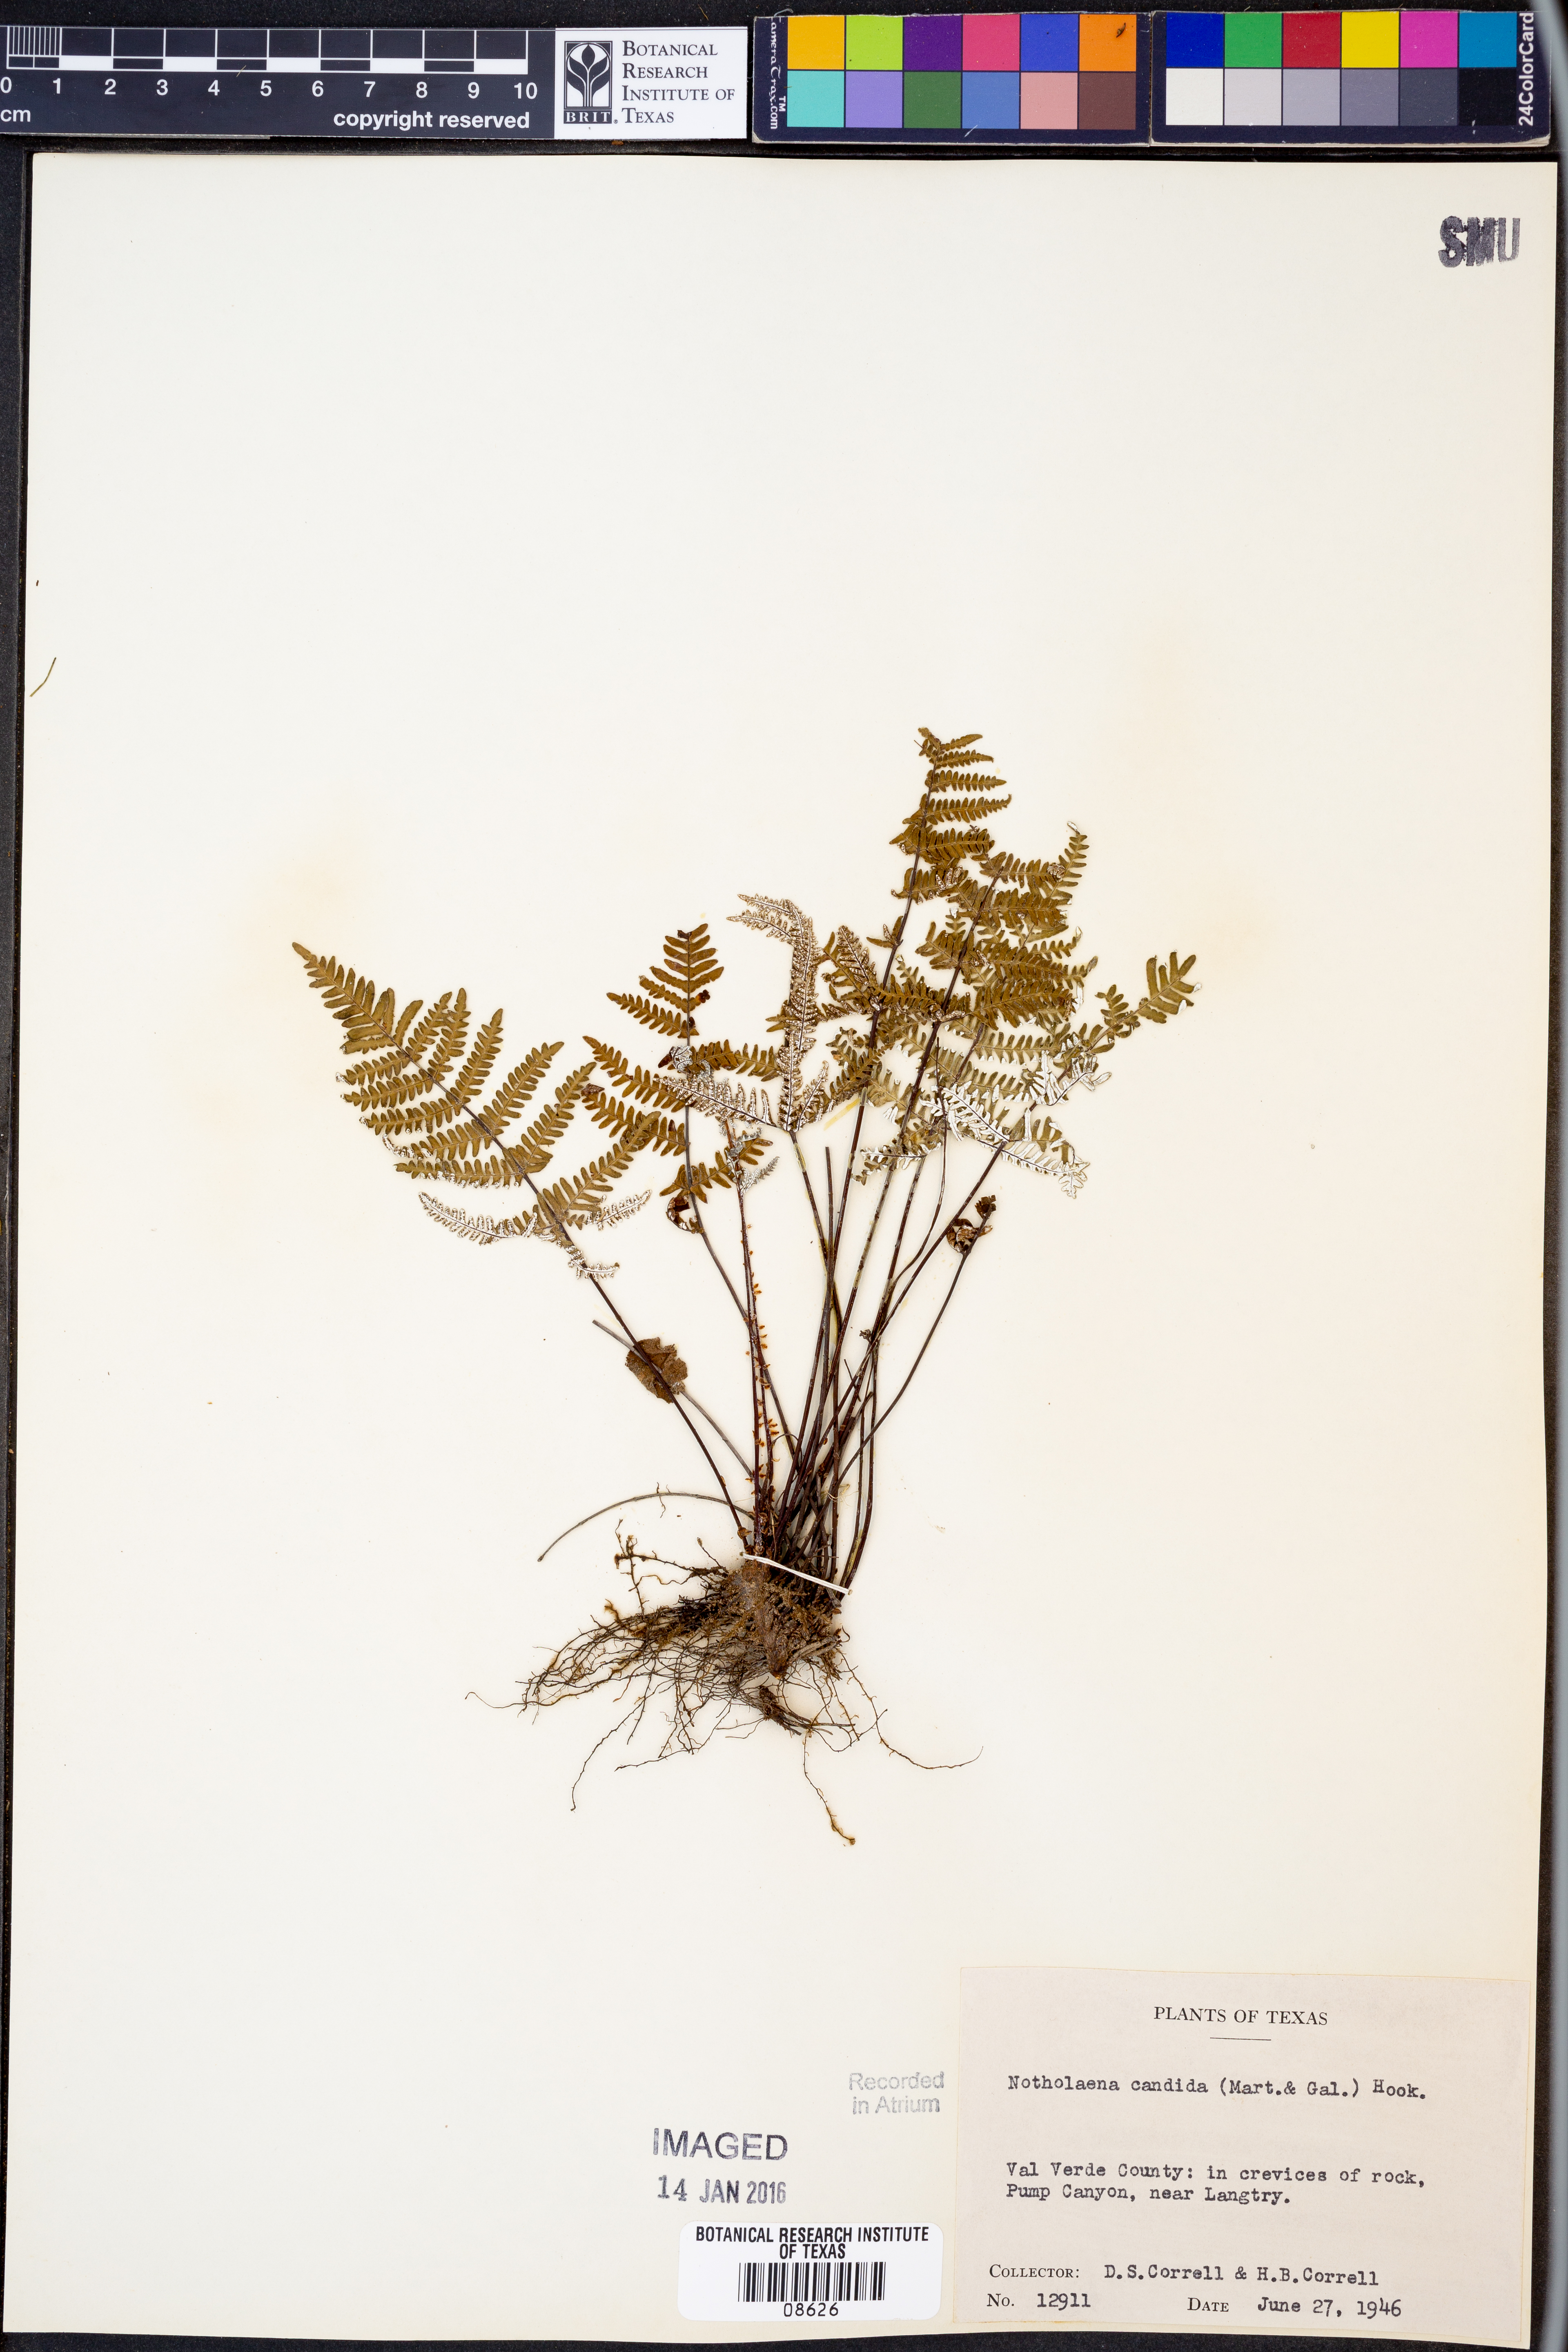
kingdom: Plantae
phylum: Tracheophyta
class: Polypodiopsida
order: Polypodiales
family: Pteridaceae
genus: Notholaena
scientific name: Notholaena candida
